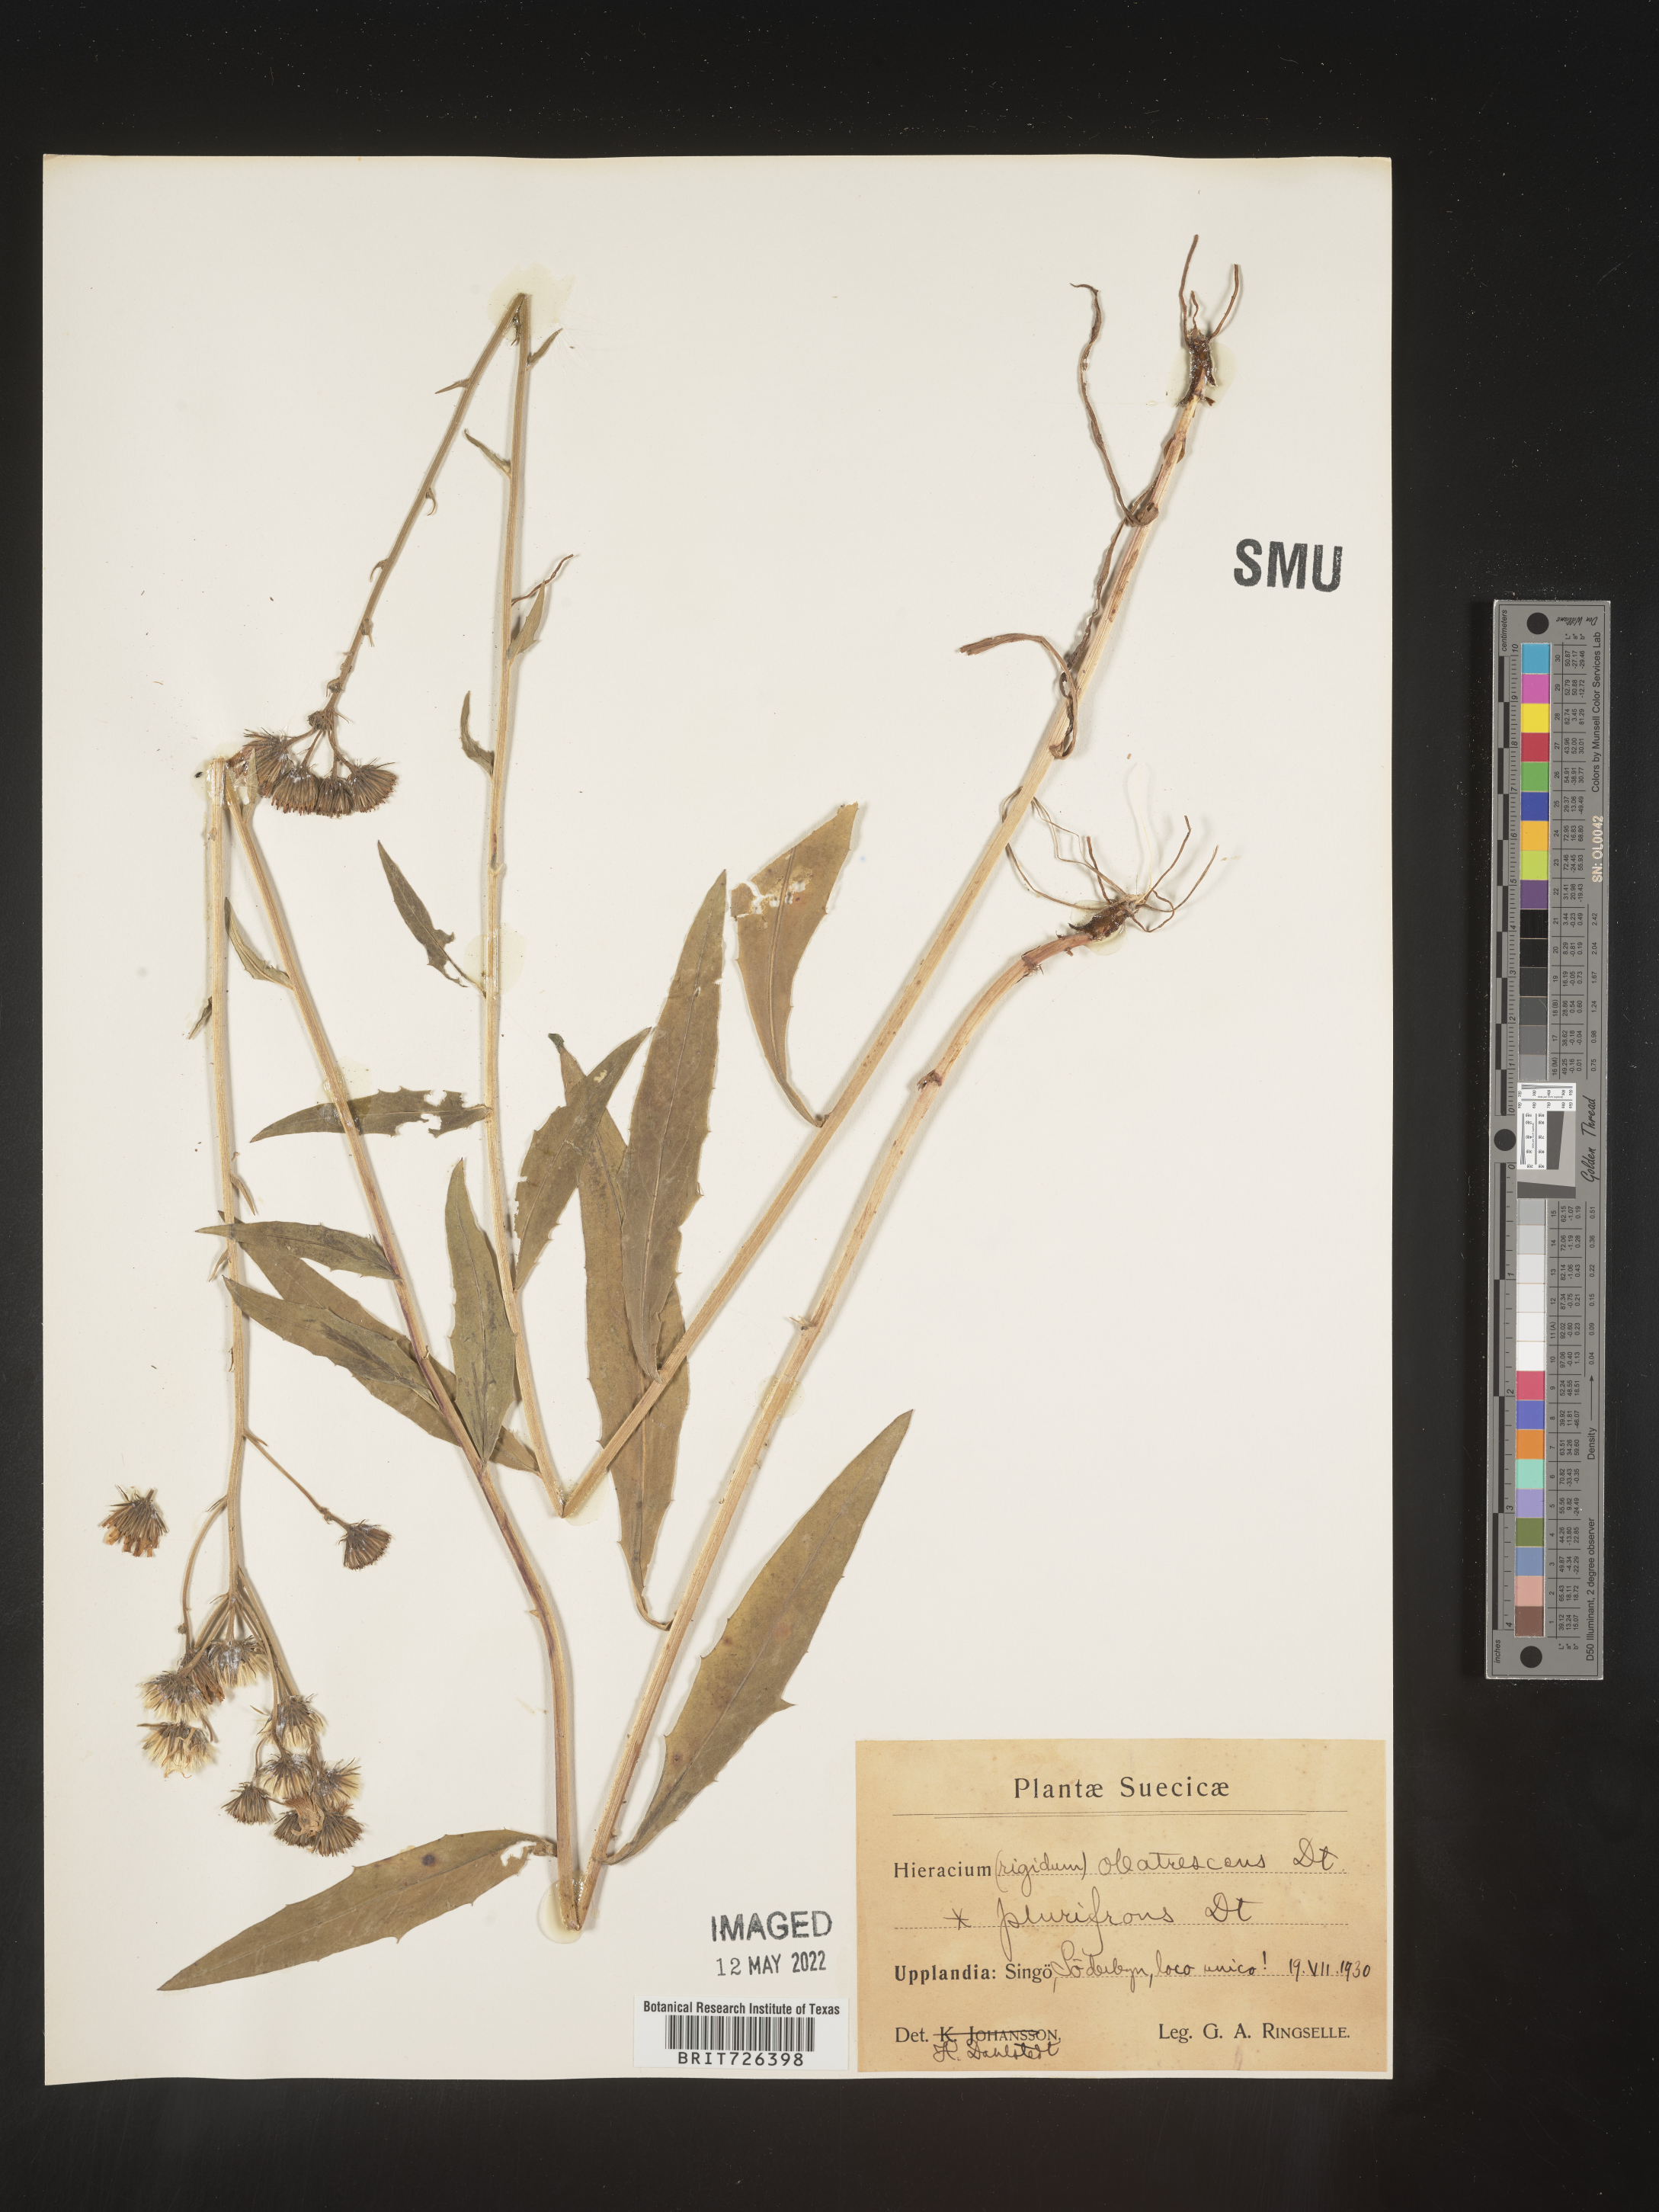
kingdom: Plantae
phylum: Tracheophyta
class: Magnoliopsida
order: Asterales
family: Asteraceae
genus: Hieracium
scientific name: Hieracium
